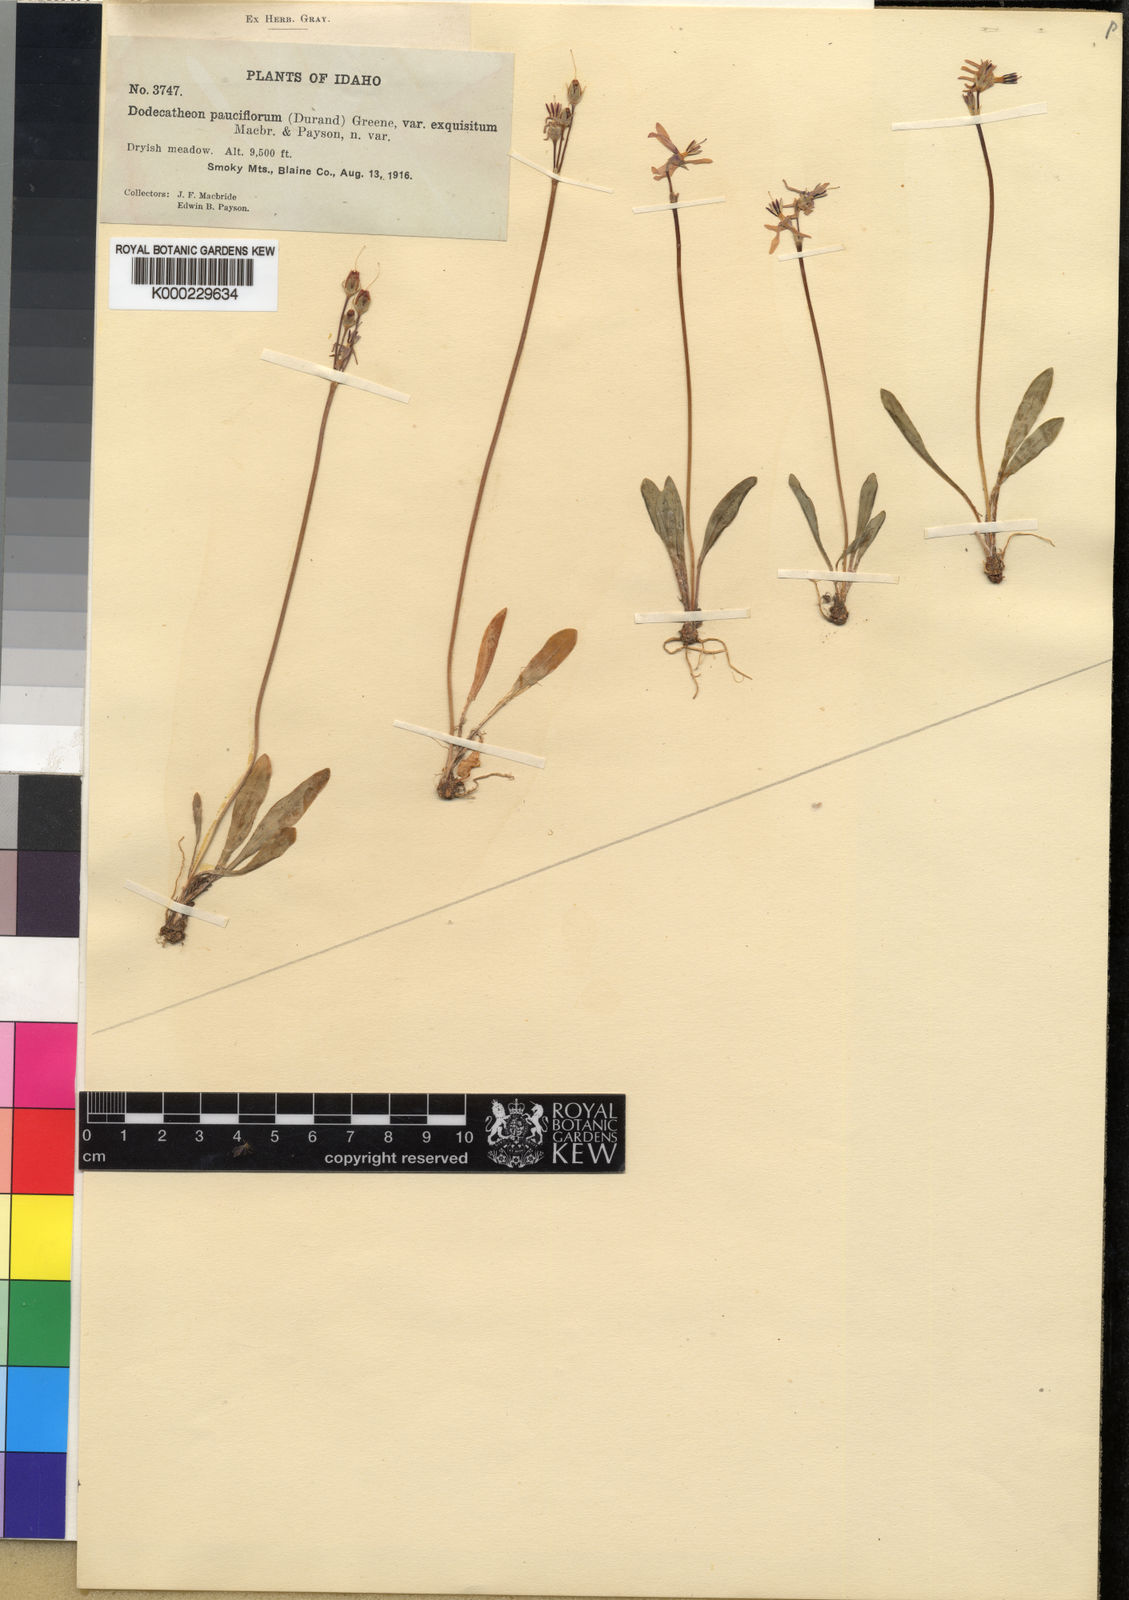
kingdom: Plantae
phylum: Tracheophyta
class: Magnoliopsida
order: Ericales
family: Primulaceae
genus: Dodecatheon
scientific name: Dodecatheon pulchellum
